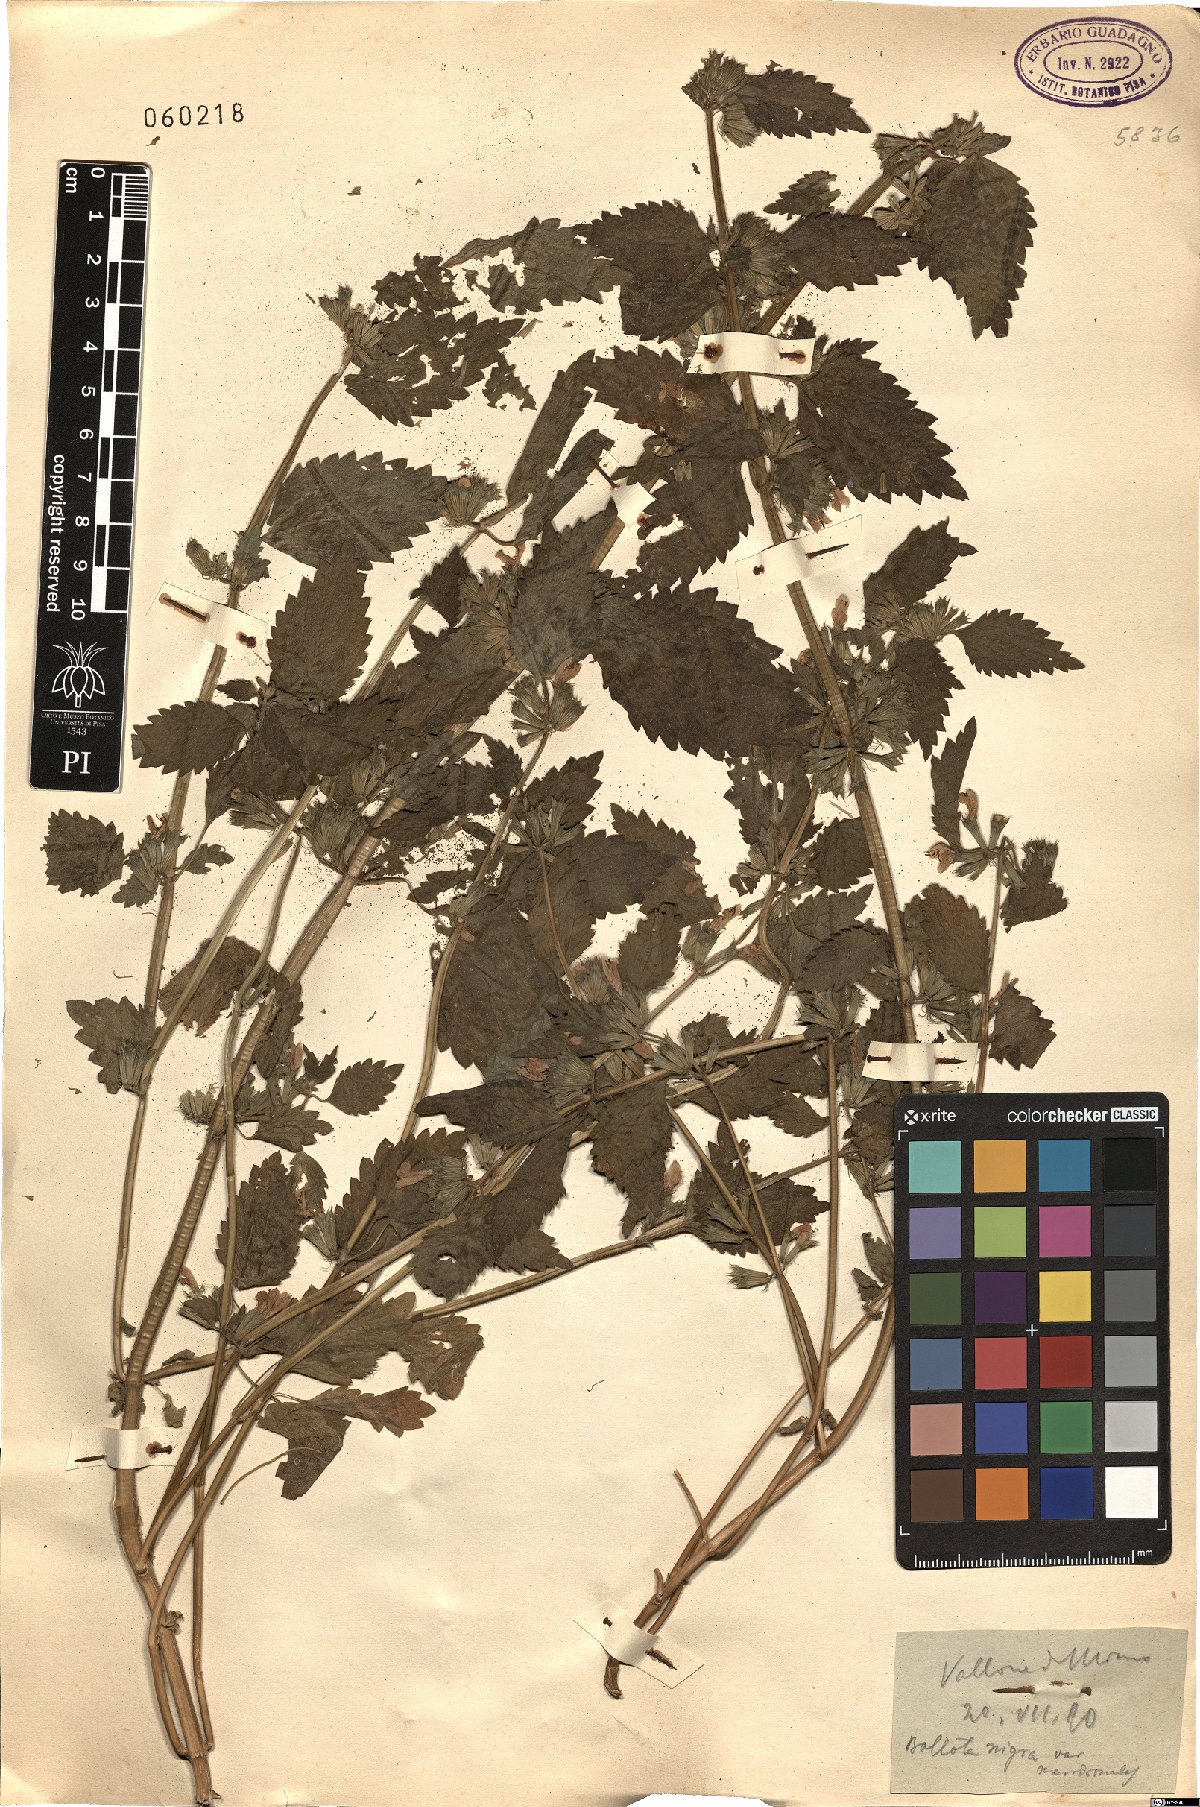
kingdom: Plantae
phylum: Tracheophyta
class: Magnoliopsida
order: Lamiales
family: Lamiaceae
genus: Ballota
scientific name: Ballota nigra
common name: Black horehound
